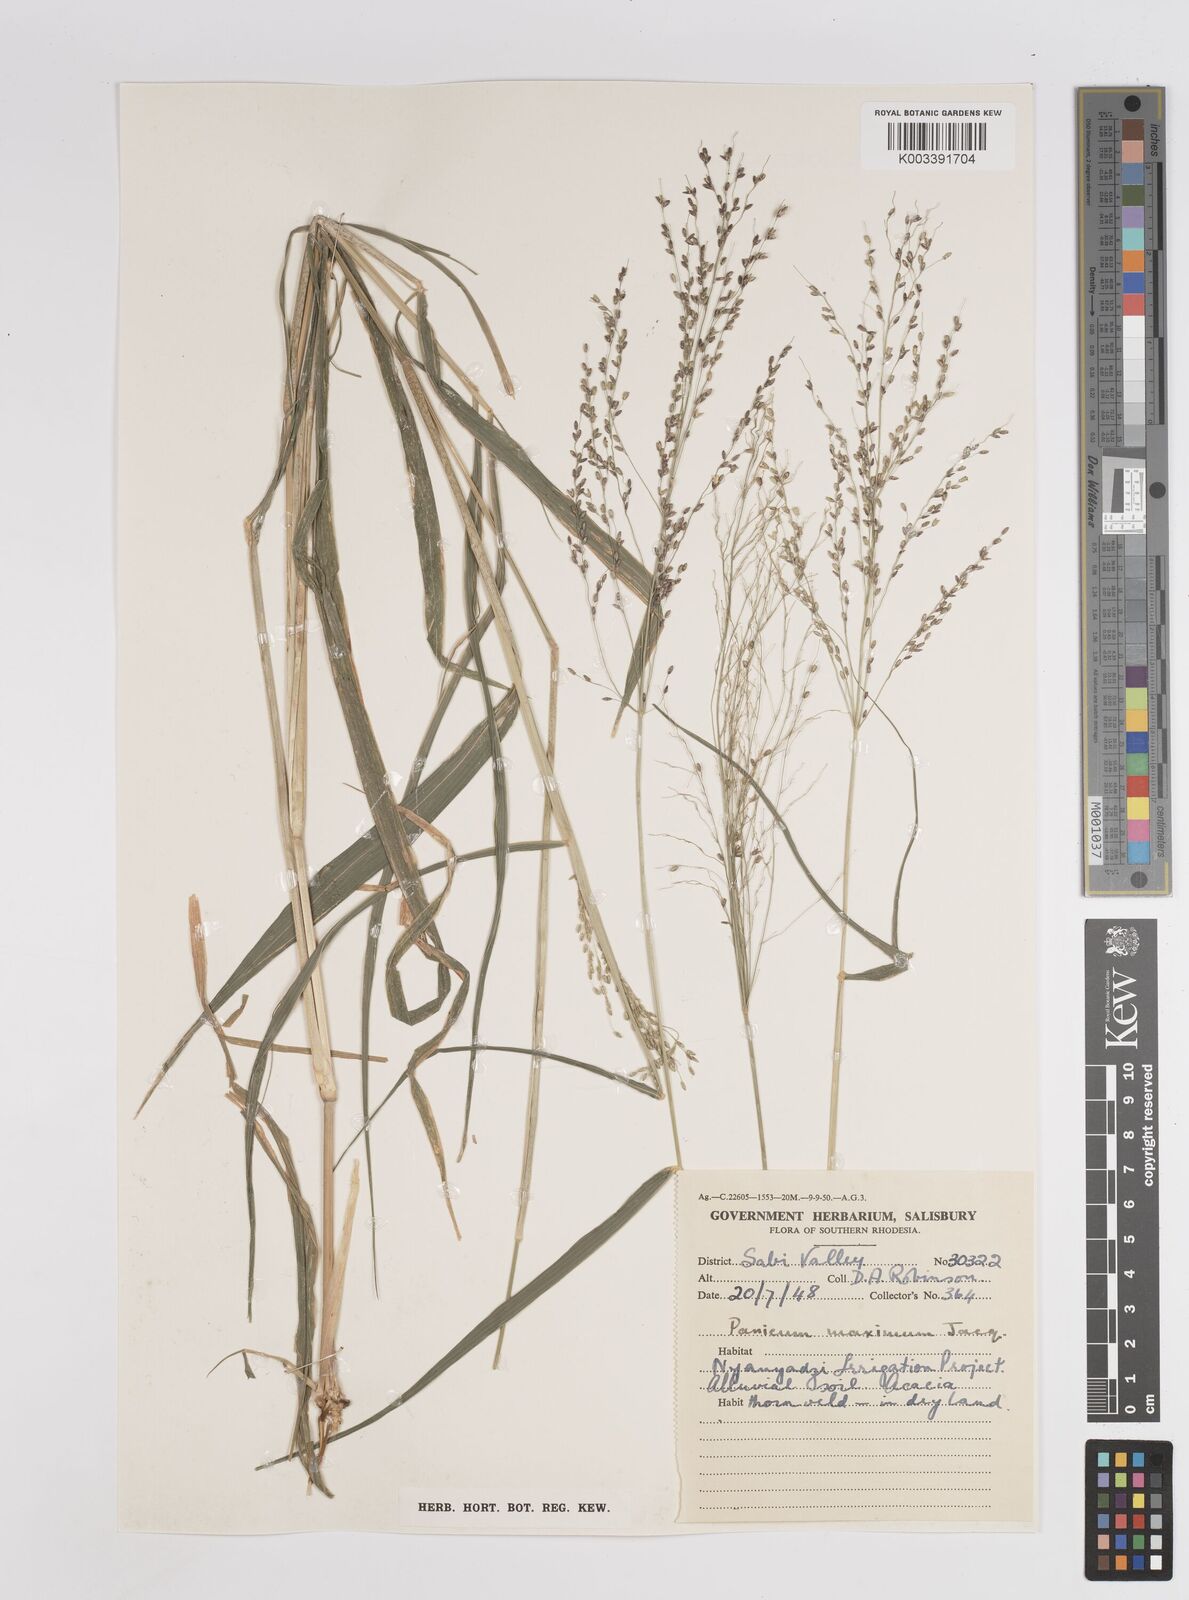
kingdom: Plantae
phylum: Tracheophyta
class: Liliopsida
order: Poales
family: Poaceae
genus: Megathyrsus
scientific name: Megathyrsus maximus
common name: Guineagrass
